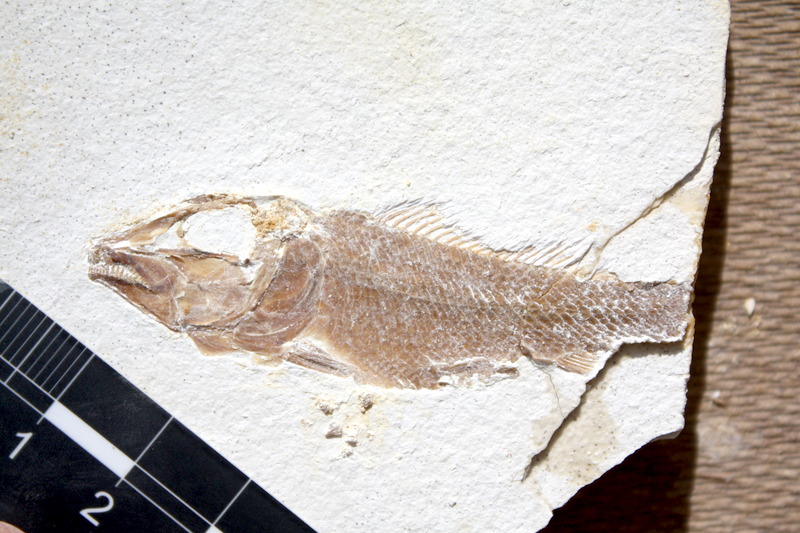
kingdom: Animalia
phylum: Chordata
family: Macrosemiidae
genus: Notagogus
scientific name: Notagogus denticulatus
